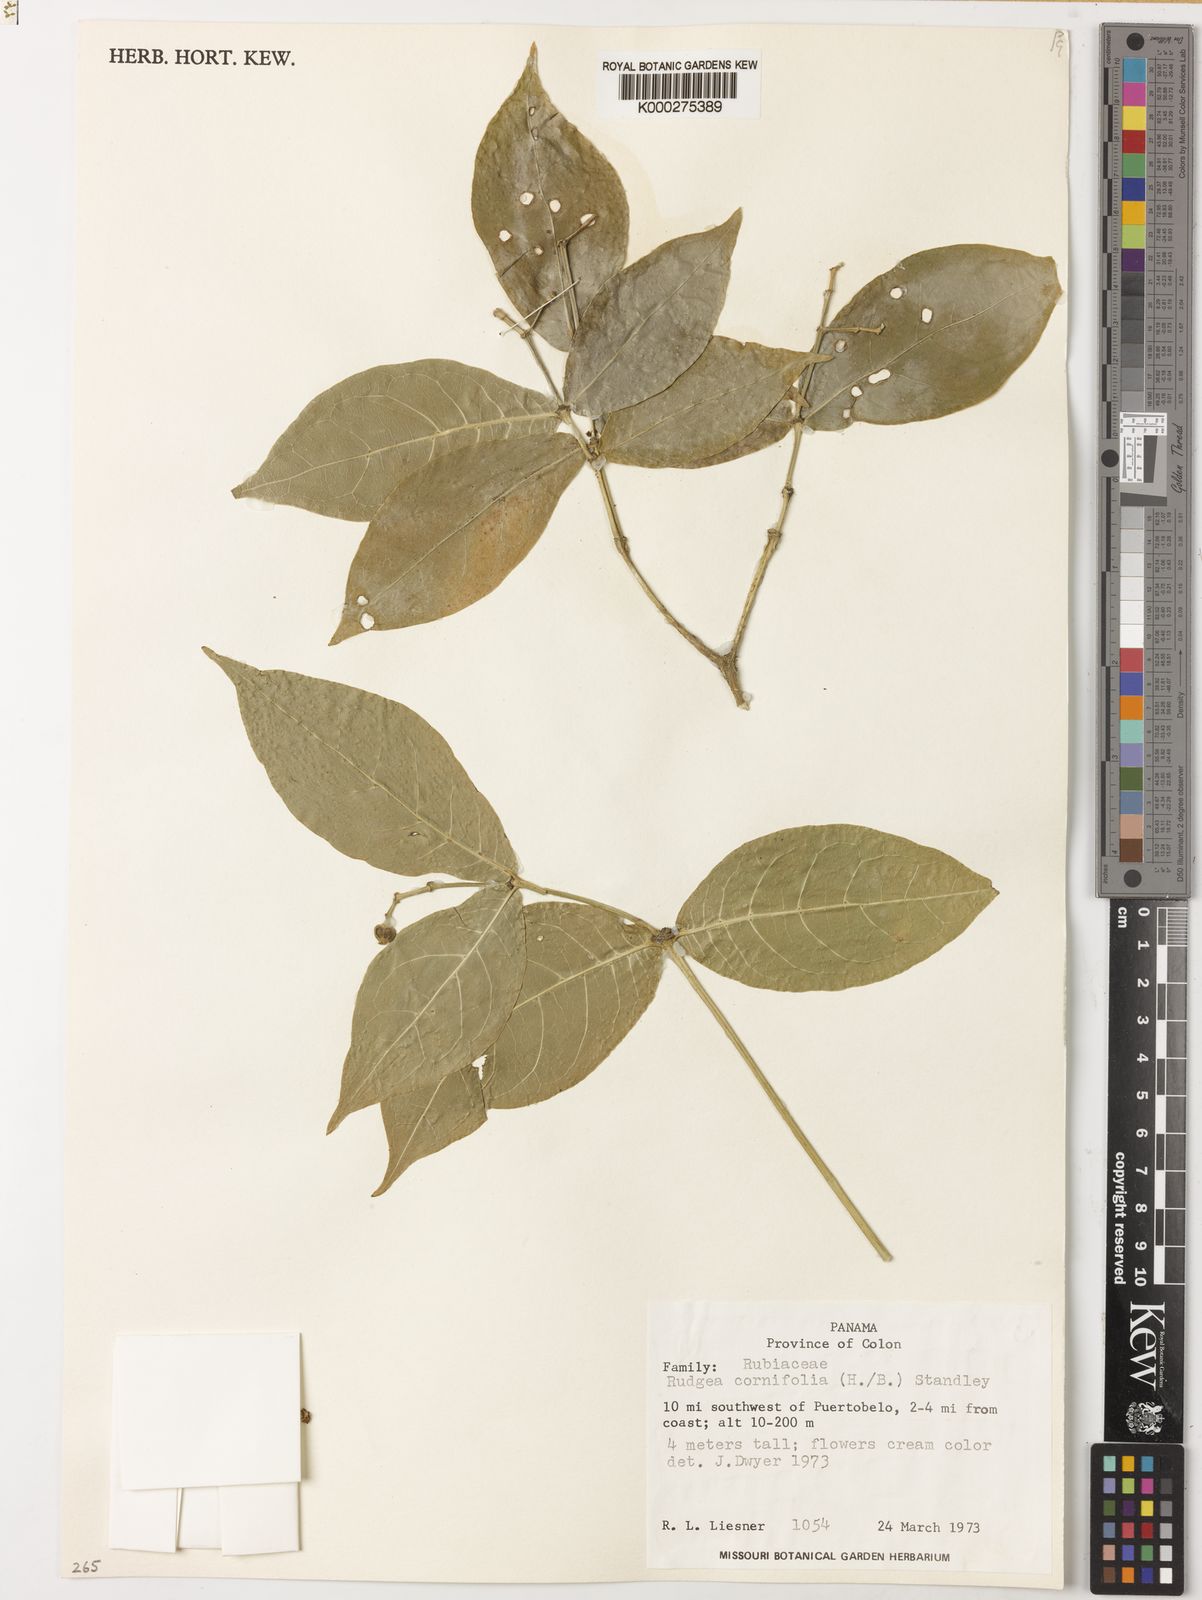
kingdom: Plantae
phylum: Tracheophyta
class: Magnoliopsida
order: Gentianales
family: Rubiaceae
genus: Rudgea
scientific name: Rudgea cornifolia
